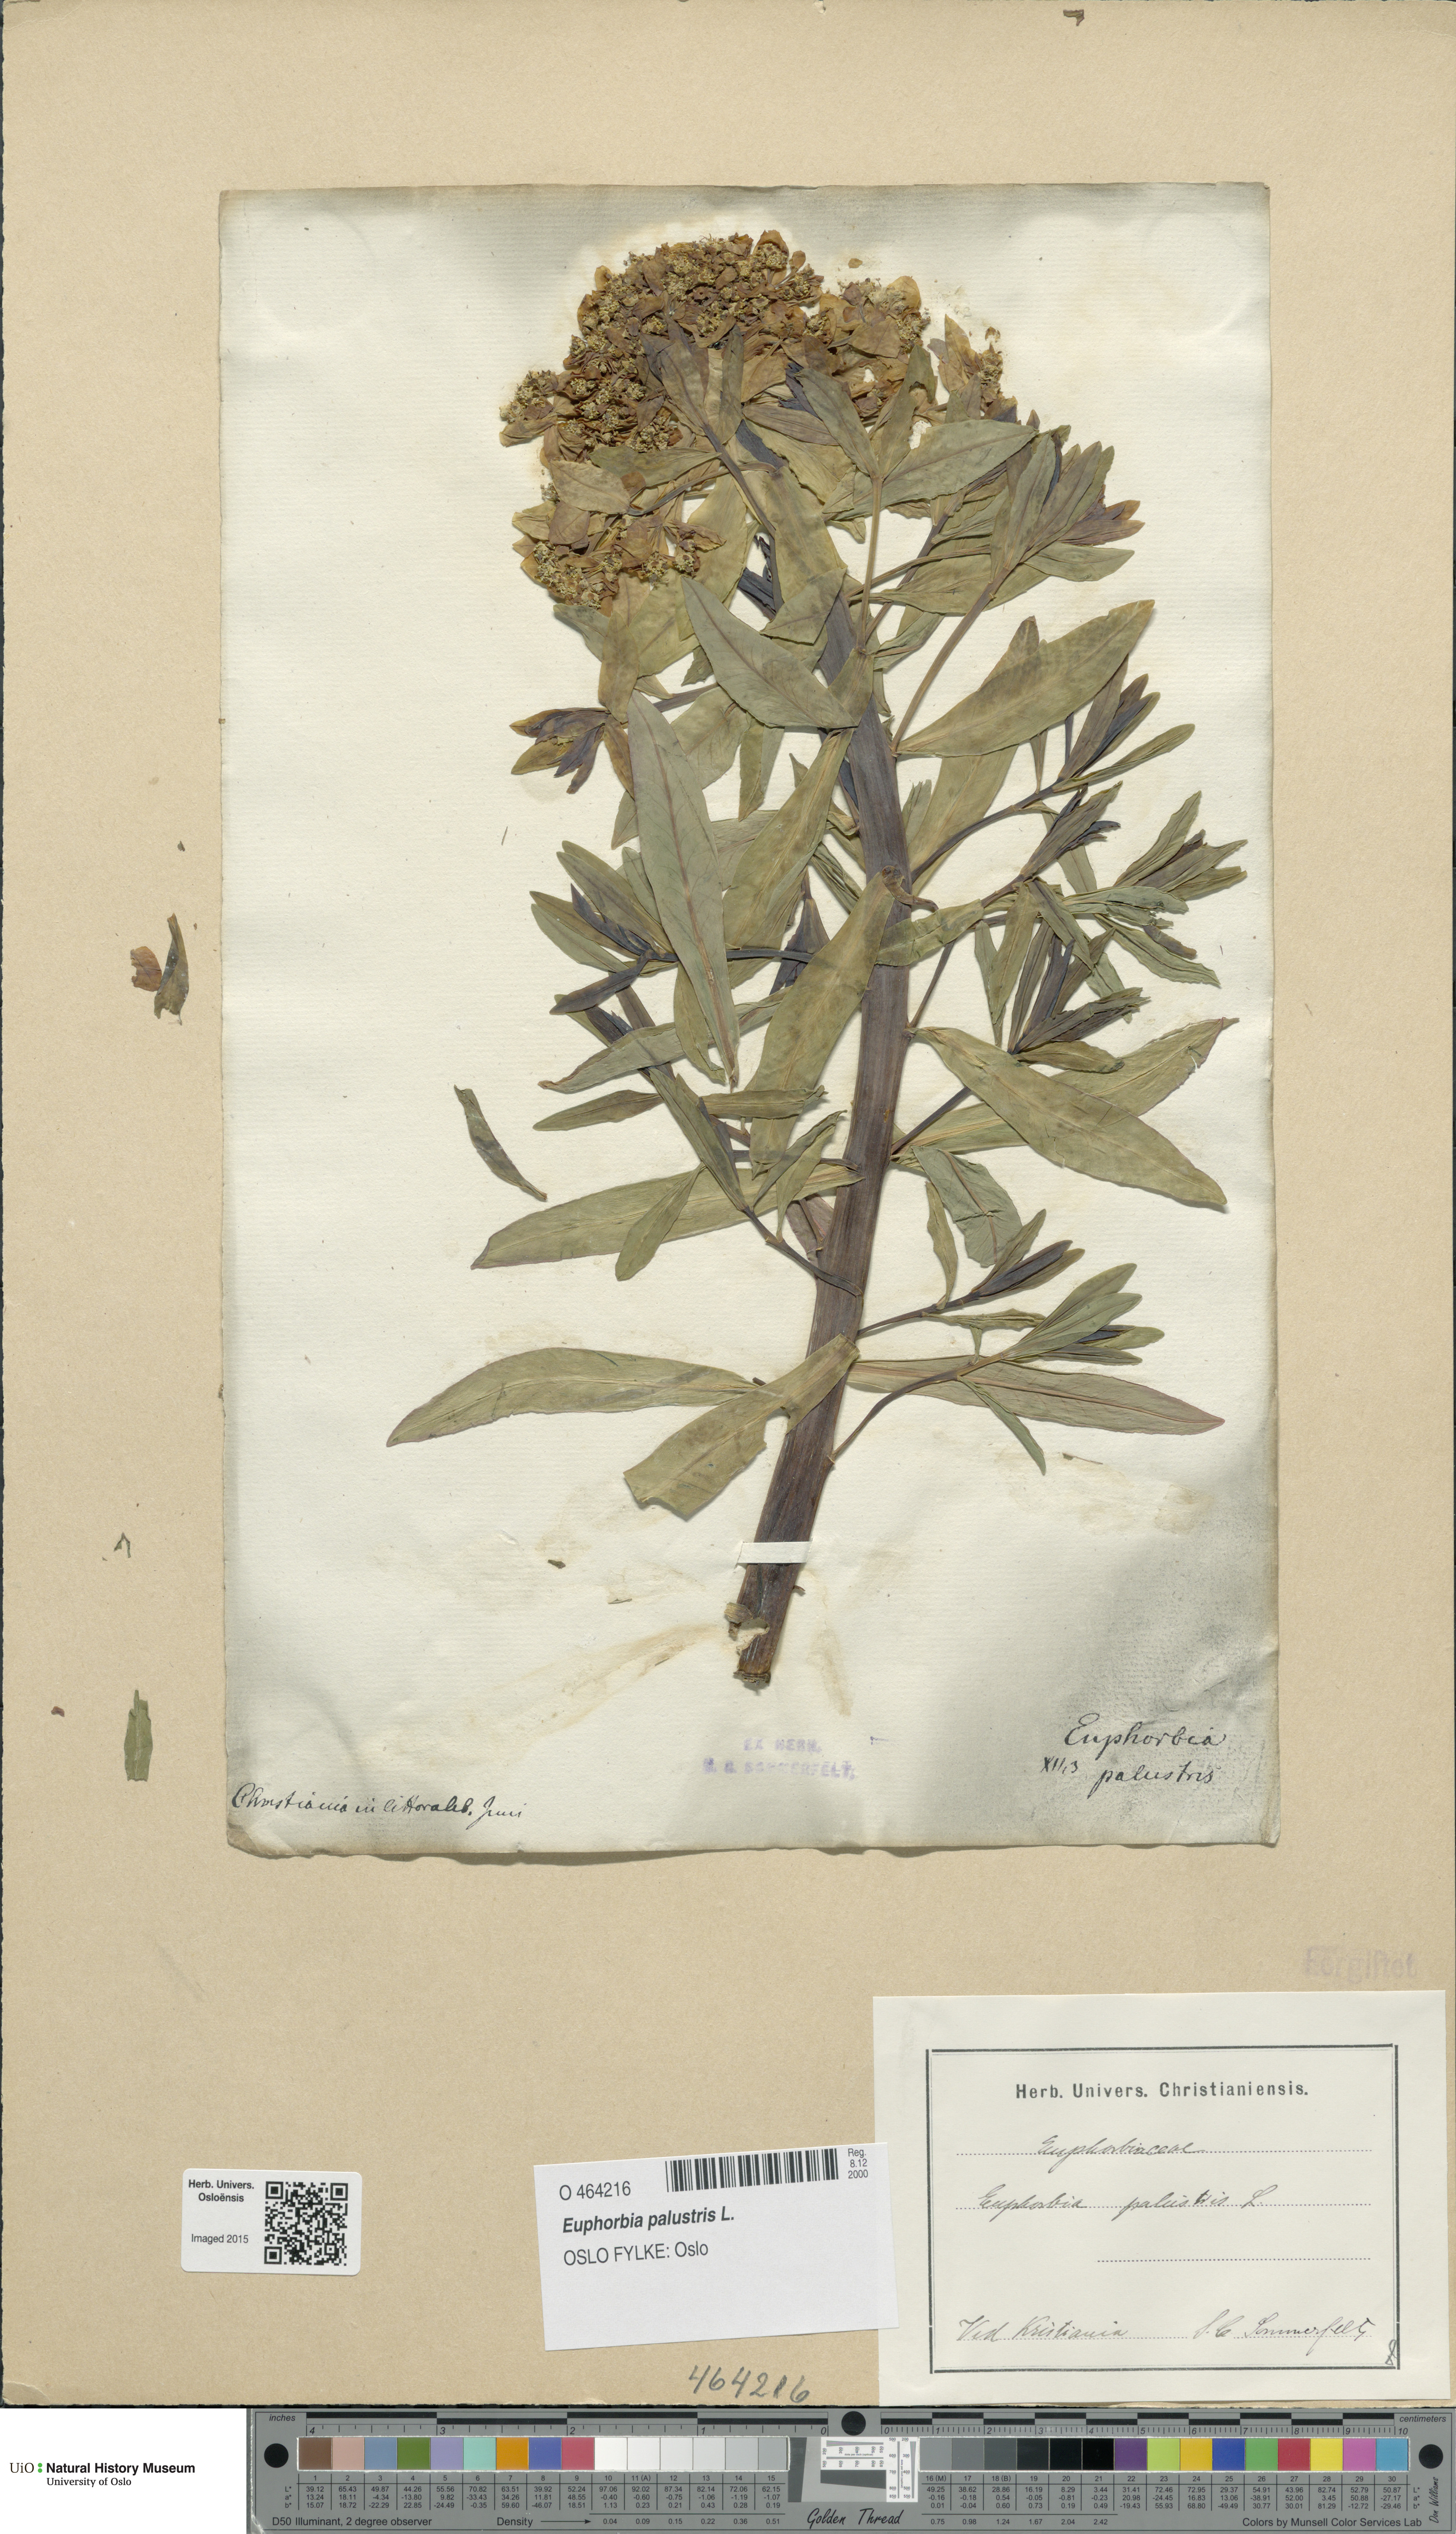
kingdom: Plantae
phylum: Tracheophyta
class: Magnoliopsida
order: Malpighiales
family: Euphorbiaceae
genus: Euphorbia
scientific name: Euphorbia palustris
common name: Marsh spurge
